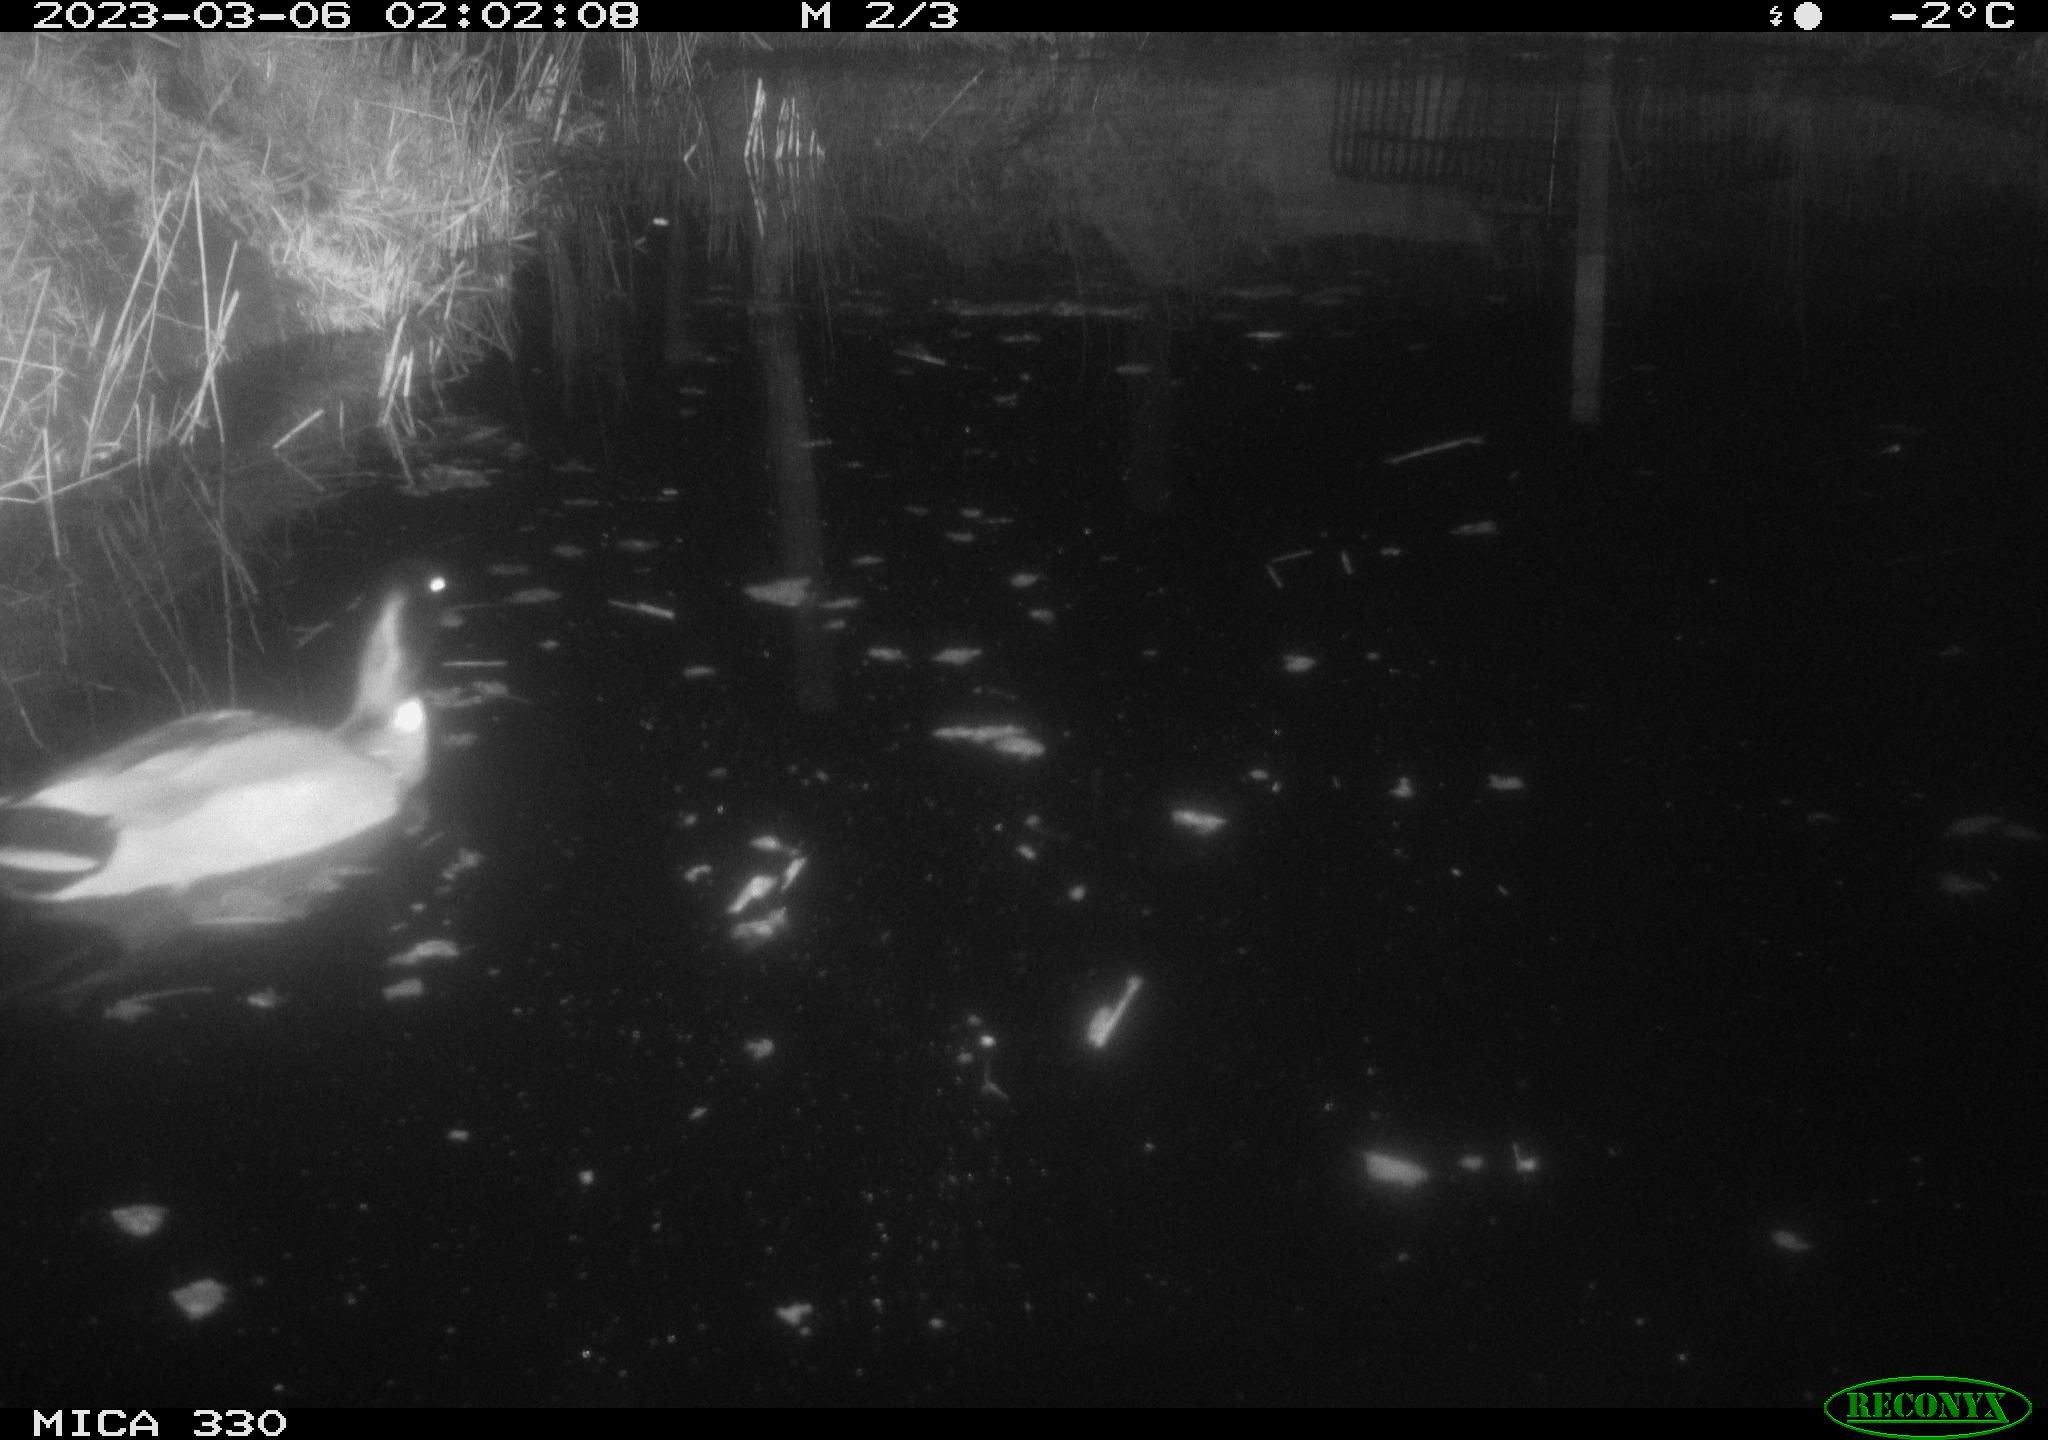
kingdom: Animalia
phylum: Chordata
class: Aves
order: Anseriformes
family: Anatidae
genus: Anas
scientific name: Anas
